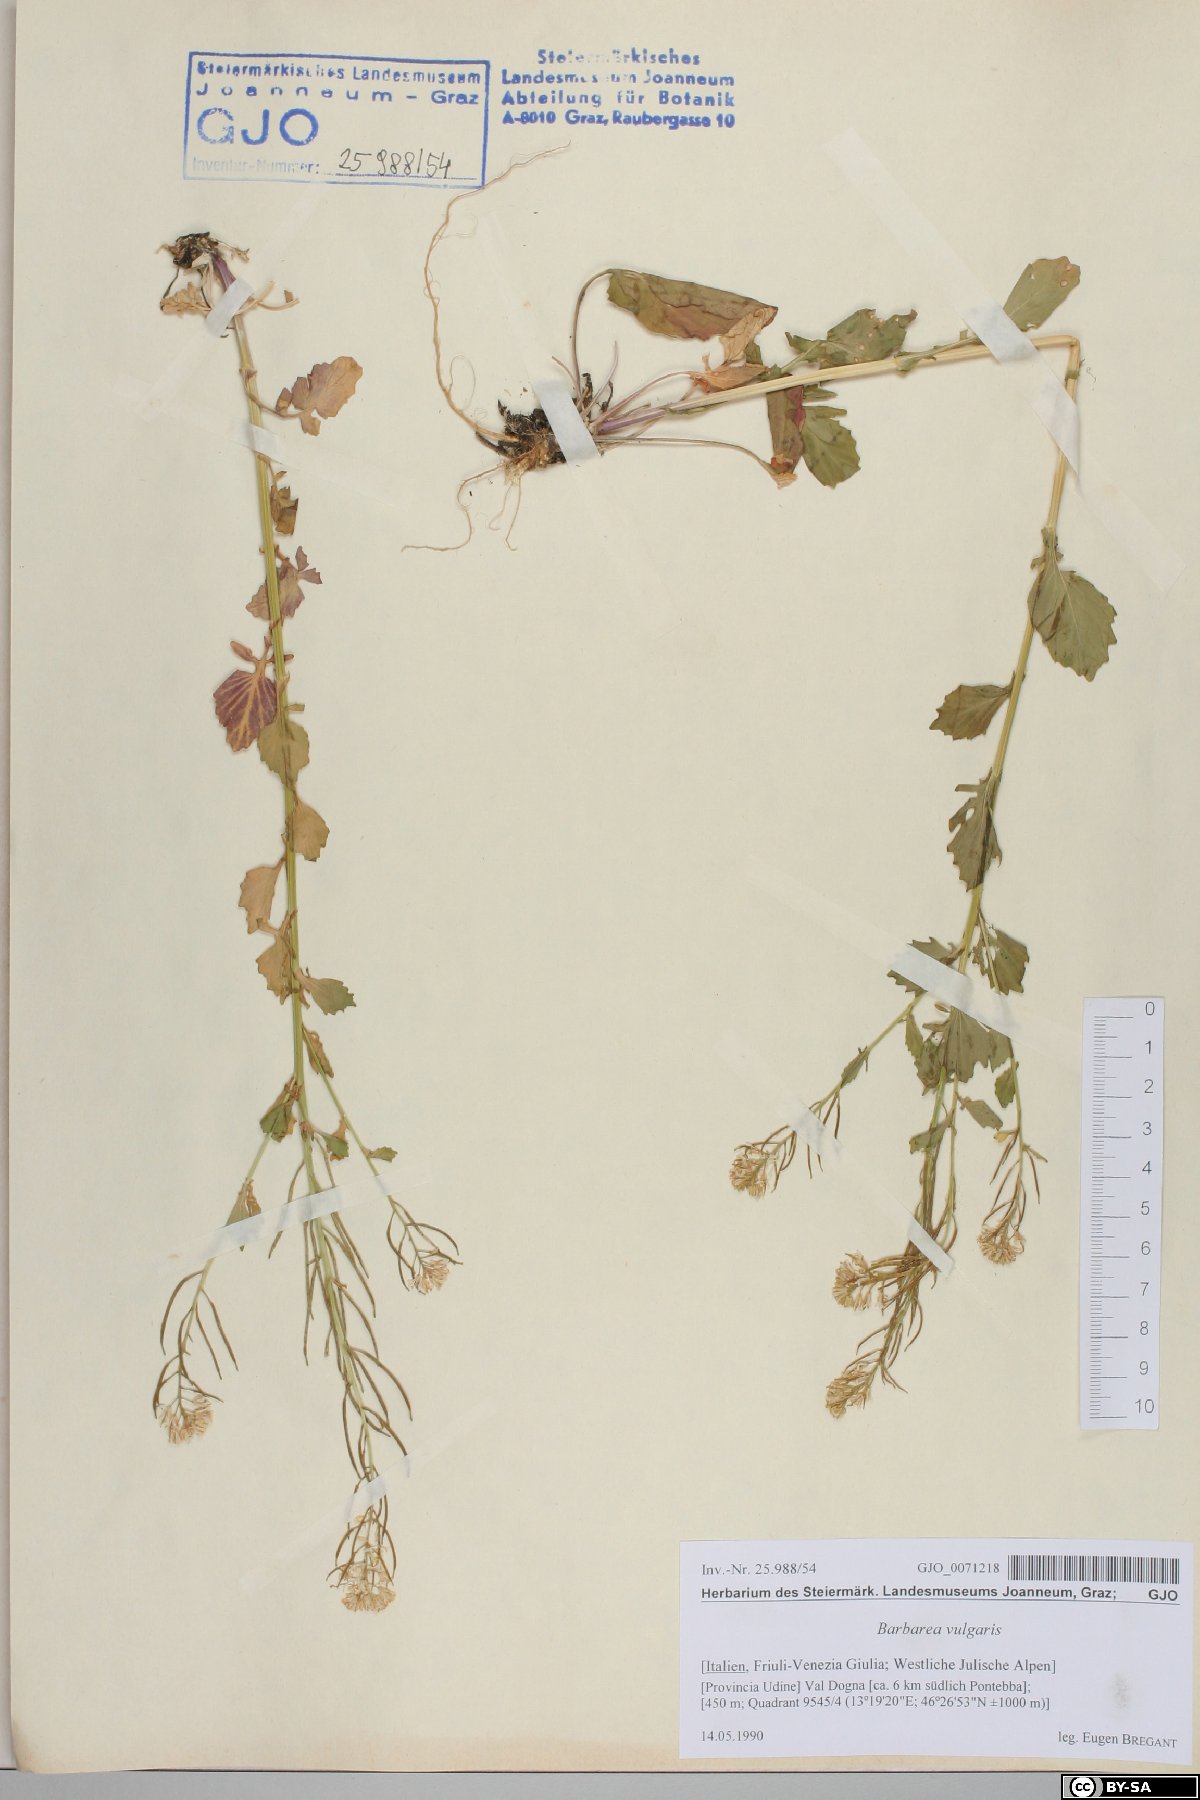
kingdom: Plantae
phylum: Tracheophyta
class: Magnoliopsida
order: Brassicales
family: Brassicaceae
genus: Barbarea
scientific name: Barbarea vulgaris
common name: Cressy-greens
